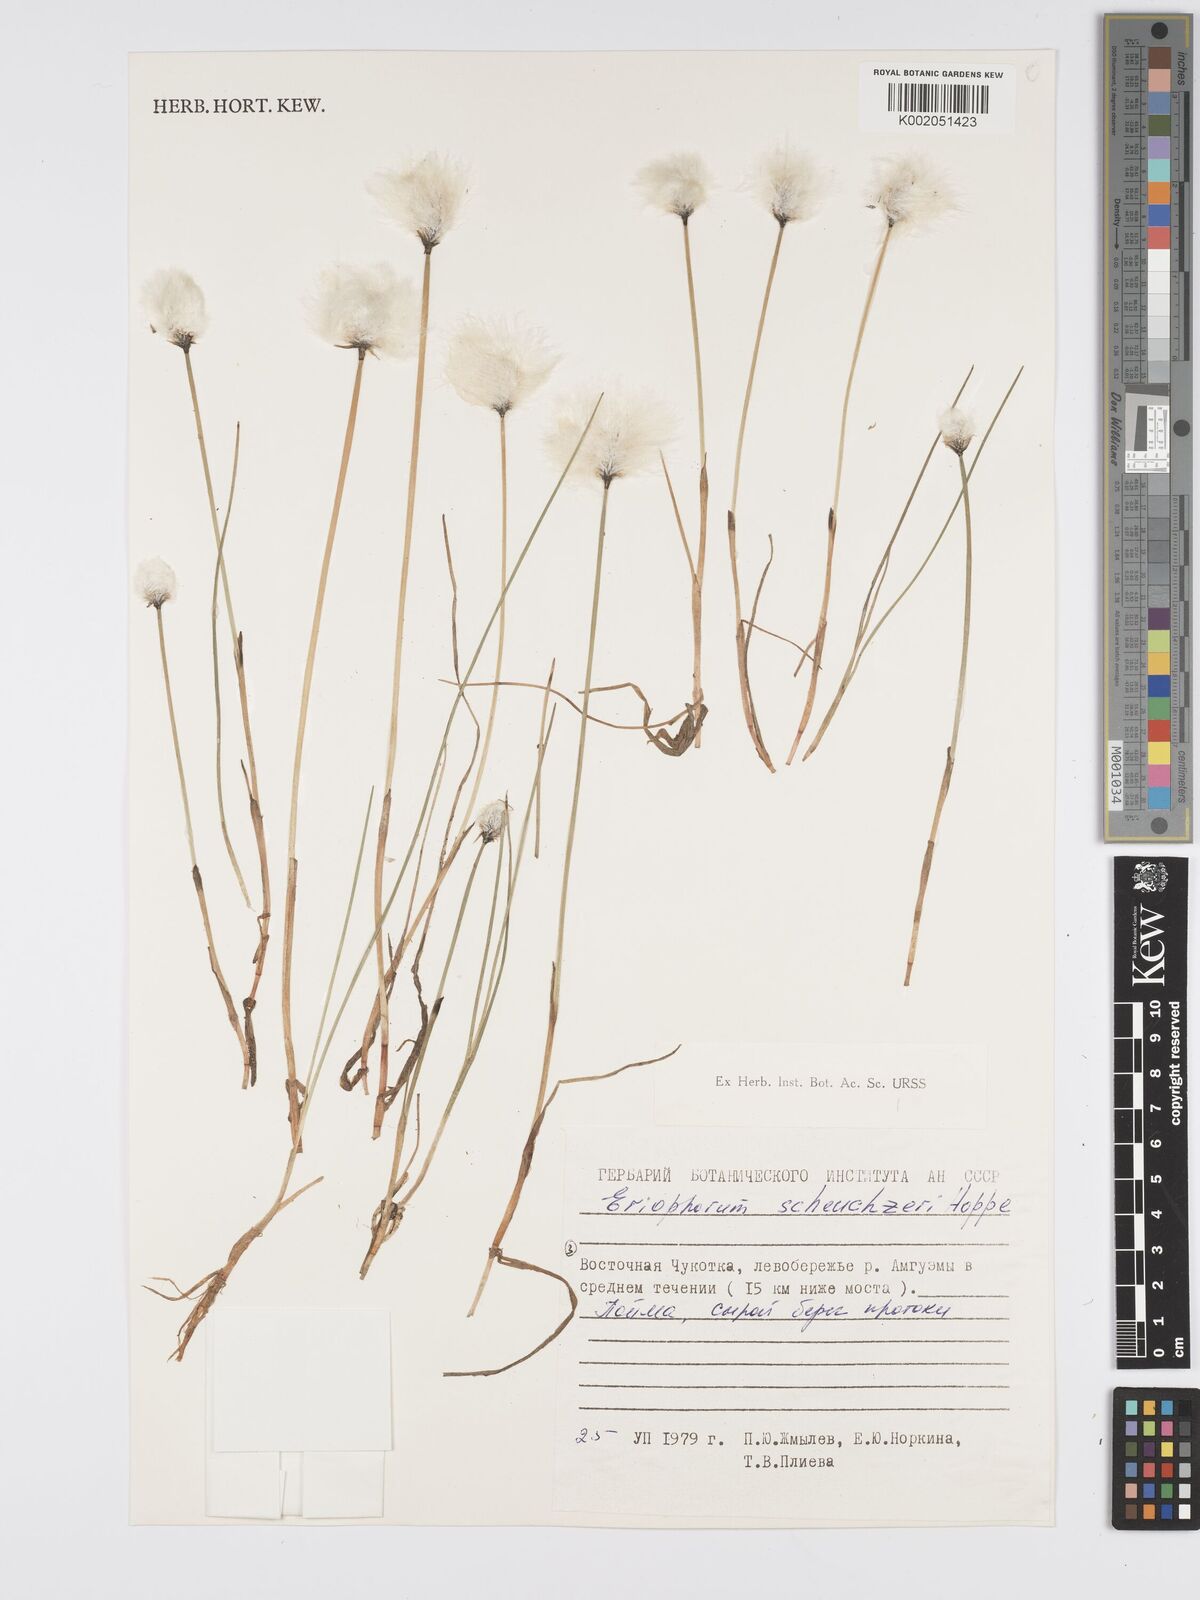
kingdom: Plantae
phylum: Tracheophyta
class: Liliopsida
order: Poales
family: Cyperaceae
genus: Eriophorum
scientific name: Eriophorum scheuchzeri
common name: Scheuchzer's cottongrass
